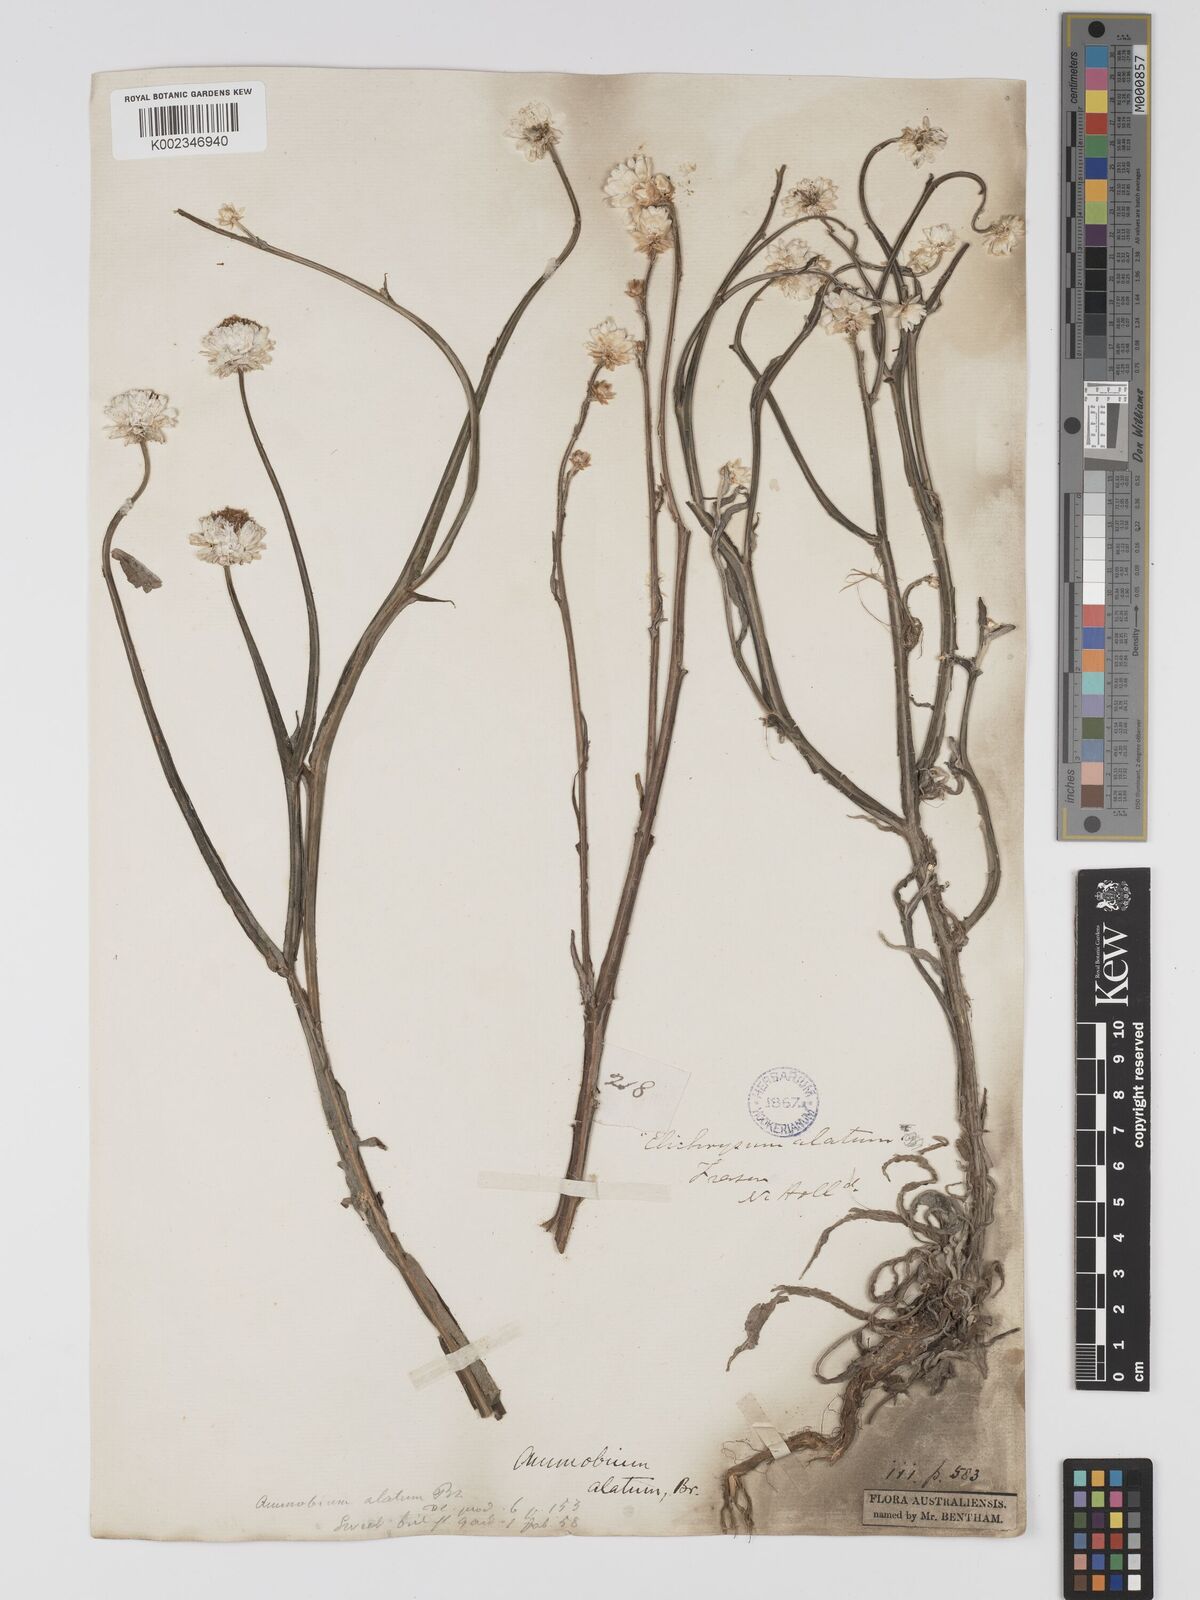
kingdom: Plantae
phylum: Tracheophyta
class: Magnoliopsida
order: Asterales
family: Asteraceae
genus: Ammobium
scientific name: Ammobium alatum
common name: Winged everlasting
